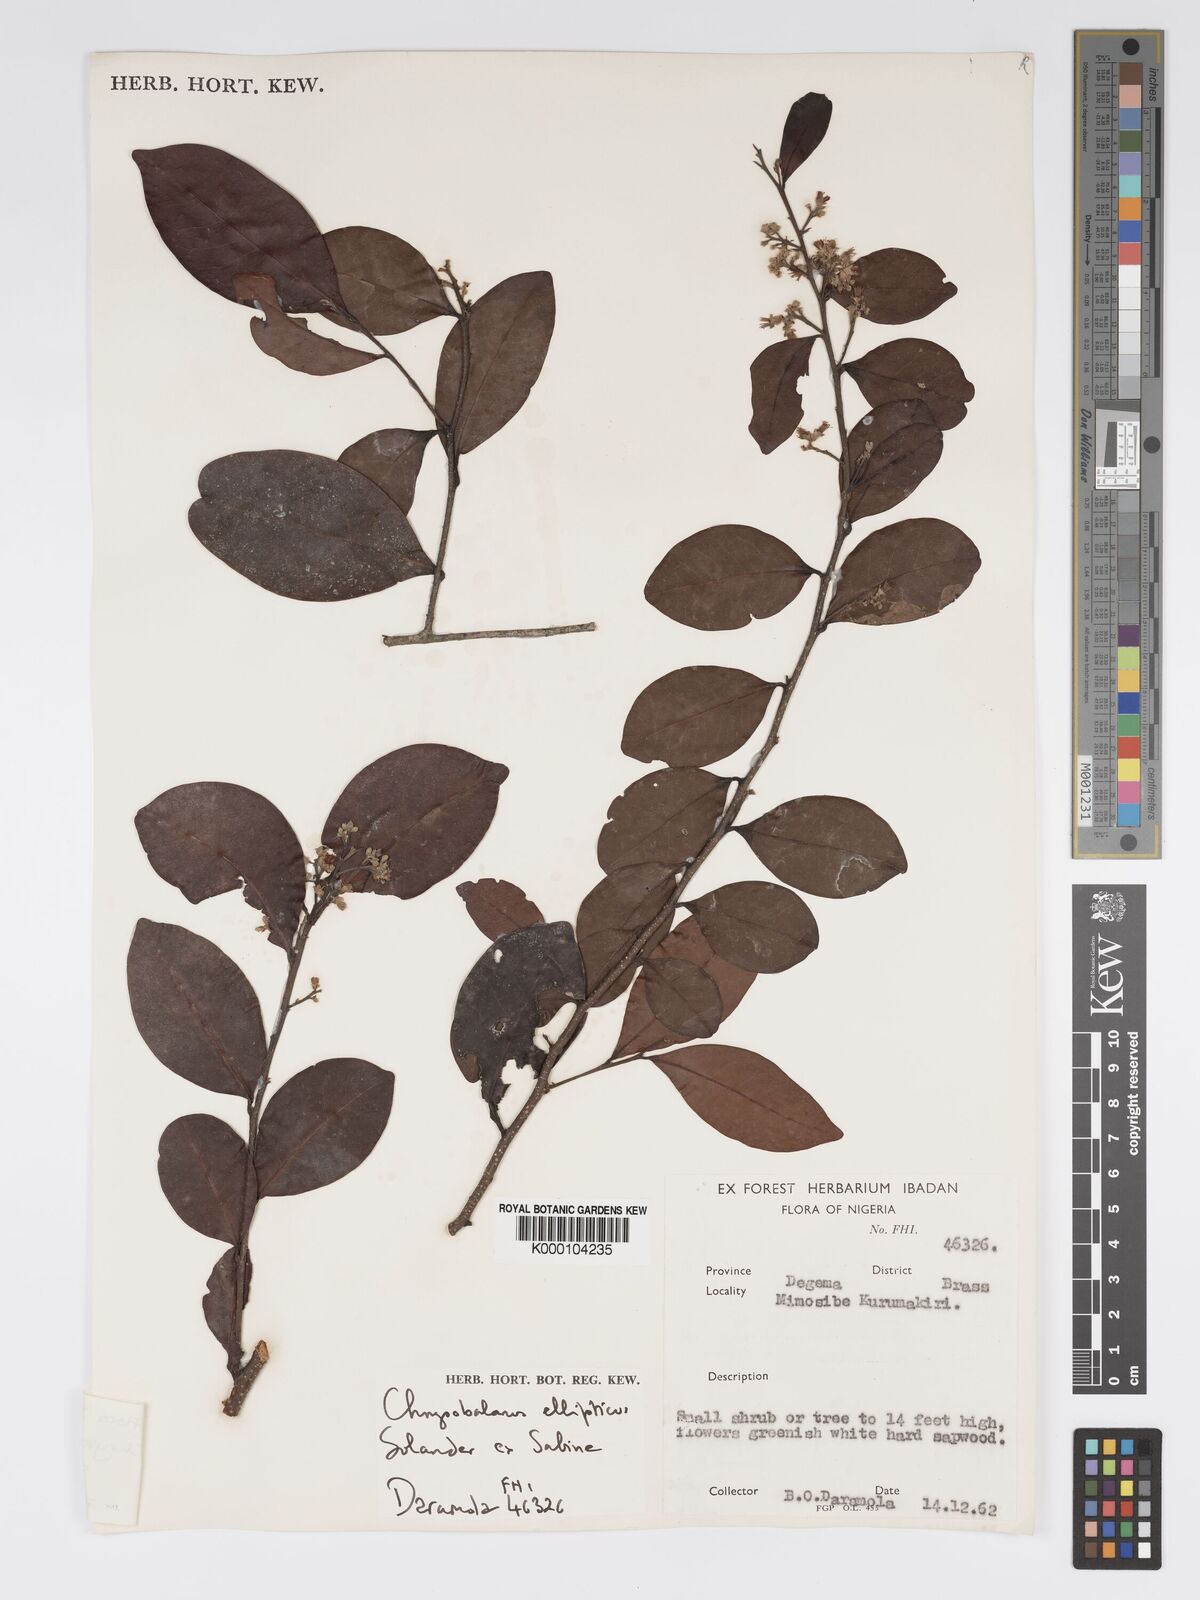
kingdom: Plantae
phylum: Tracheophyta
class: Magnoliopsida
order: Malpighiales
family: Chrysobalanaceae
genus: Chrysobalanus
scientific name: Chrysobalanus icaco
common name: Coco plum
